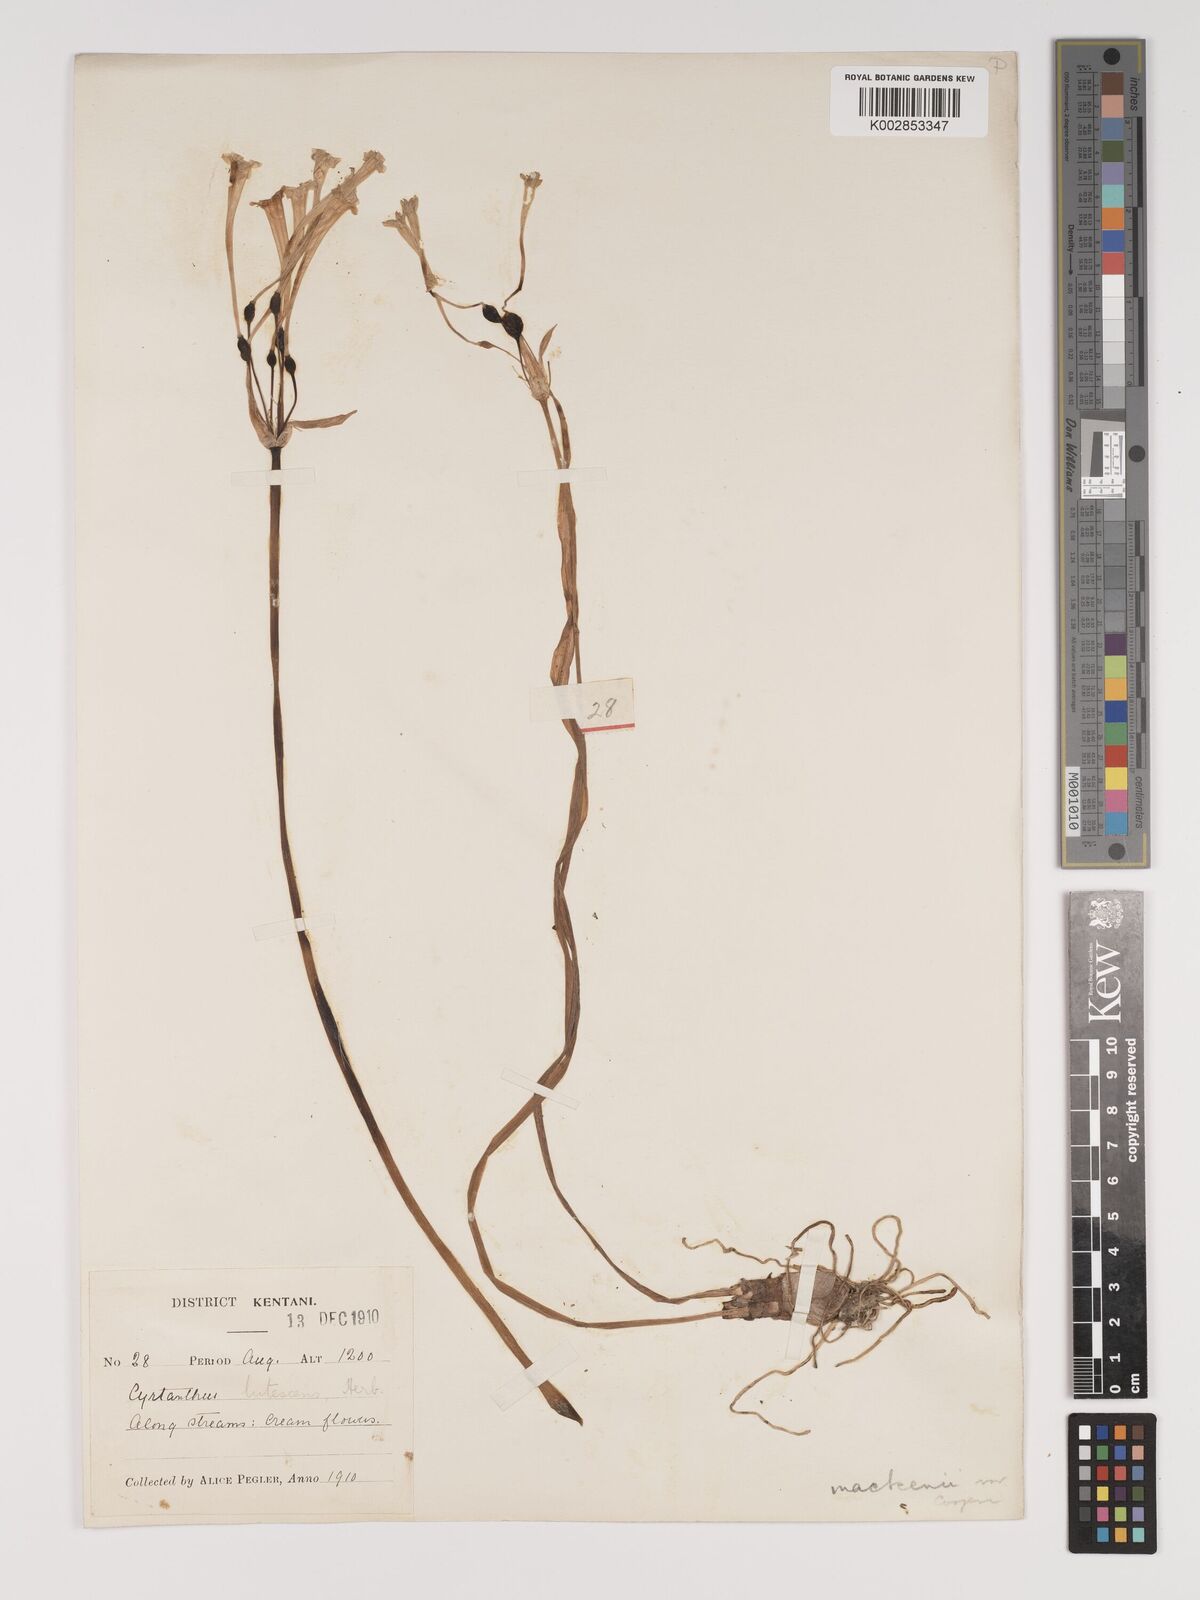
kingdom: Plantae
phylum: Tracheophyta
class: Liliopsida
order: Asparagales
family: Amaryllidaceae
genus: Cyrtanthus
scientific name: Cyrtanthus mackenii
